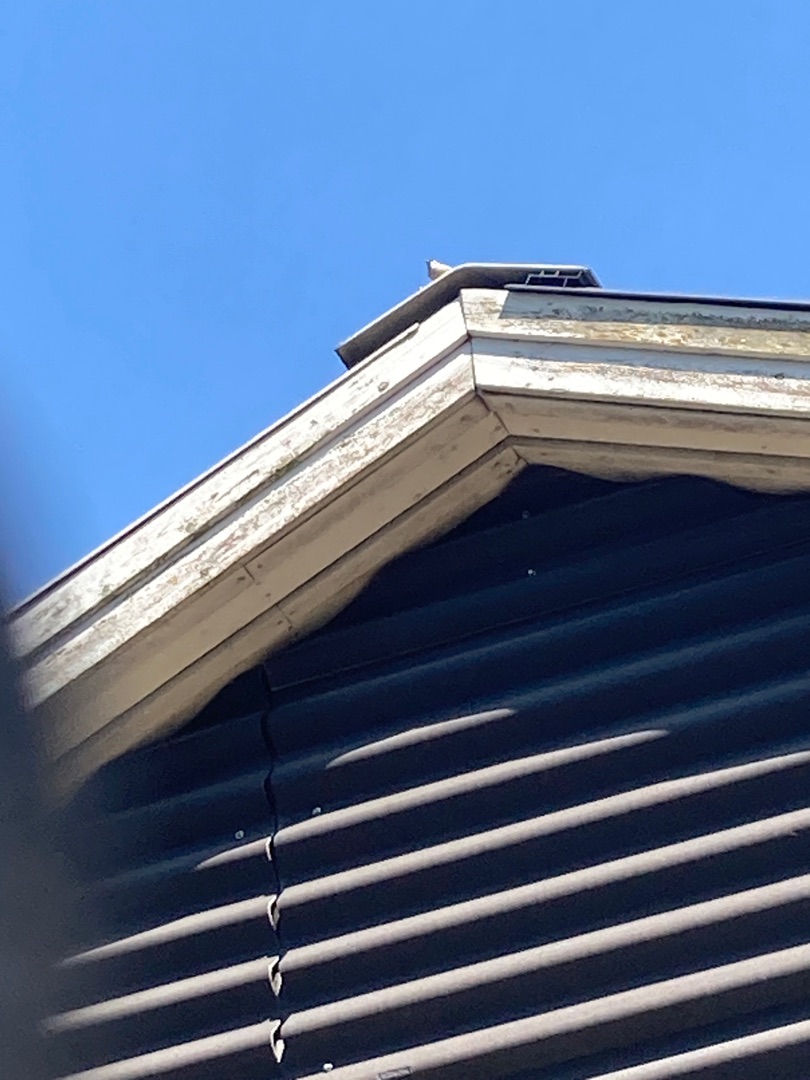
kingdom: Animalia
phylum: Chordata
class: Aves
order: Passeriformes
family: Passeridae
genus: Passer
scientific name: Passer montanus
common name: Skovspurv
